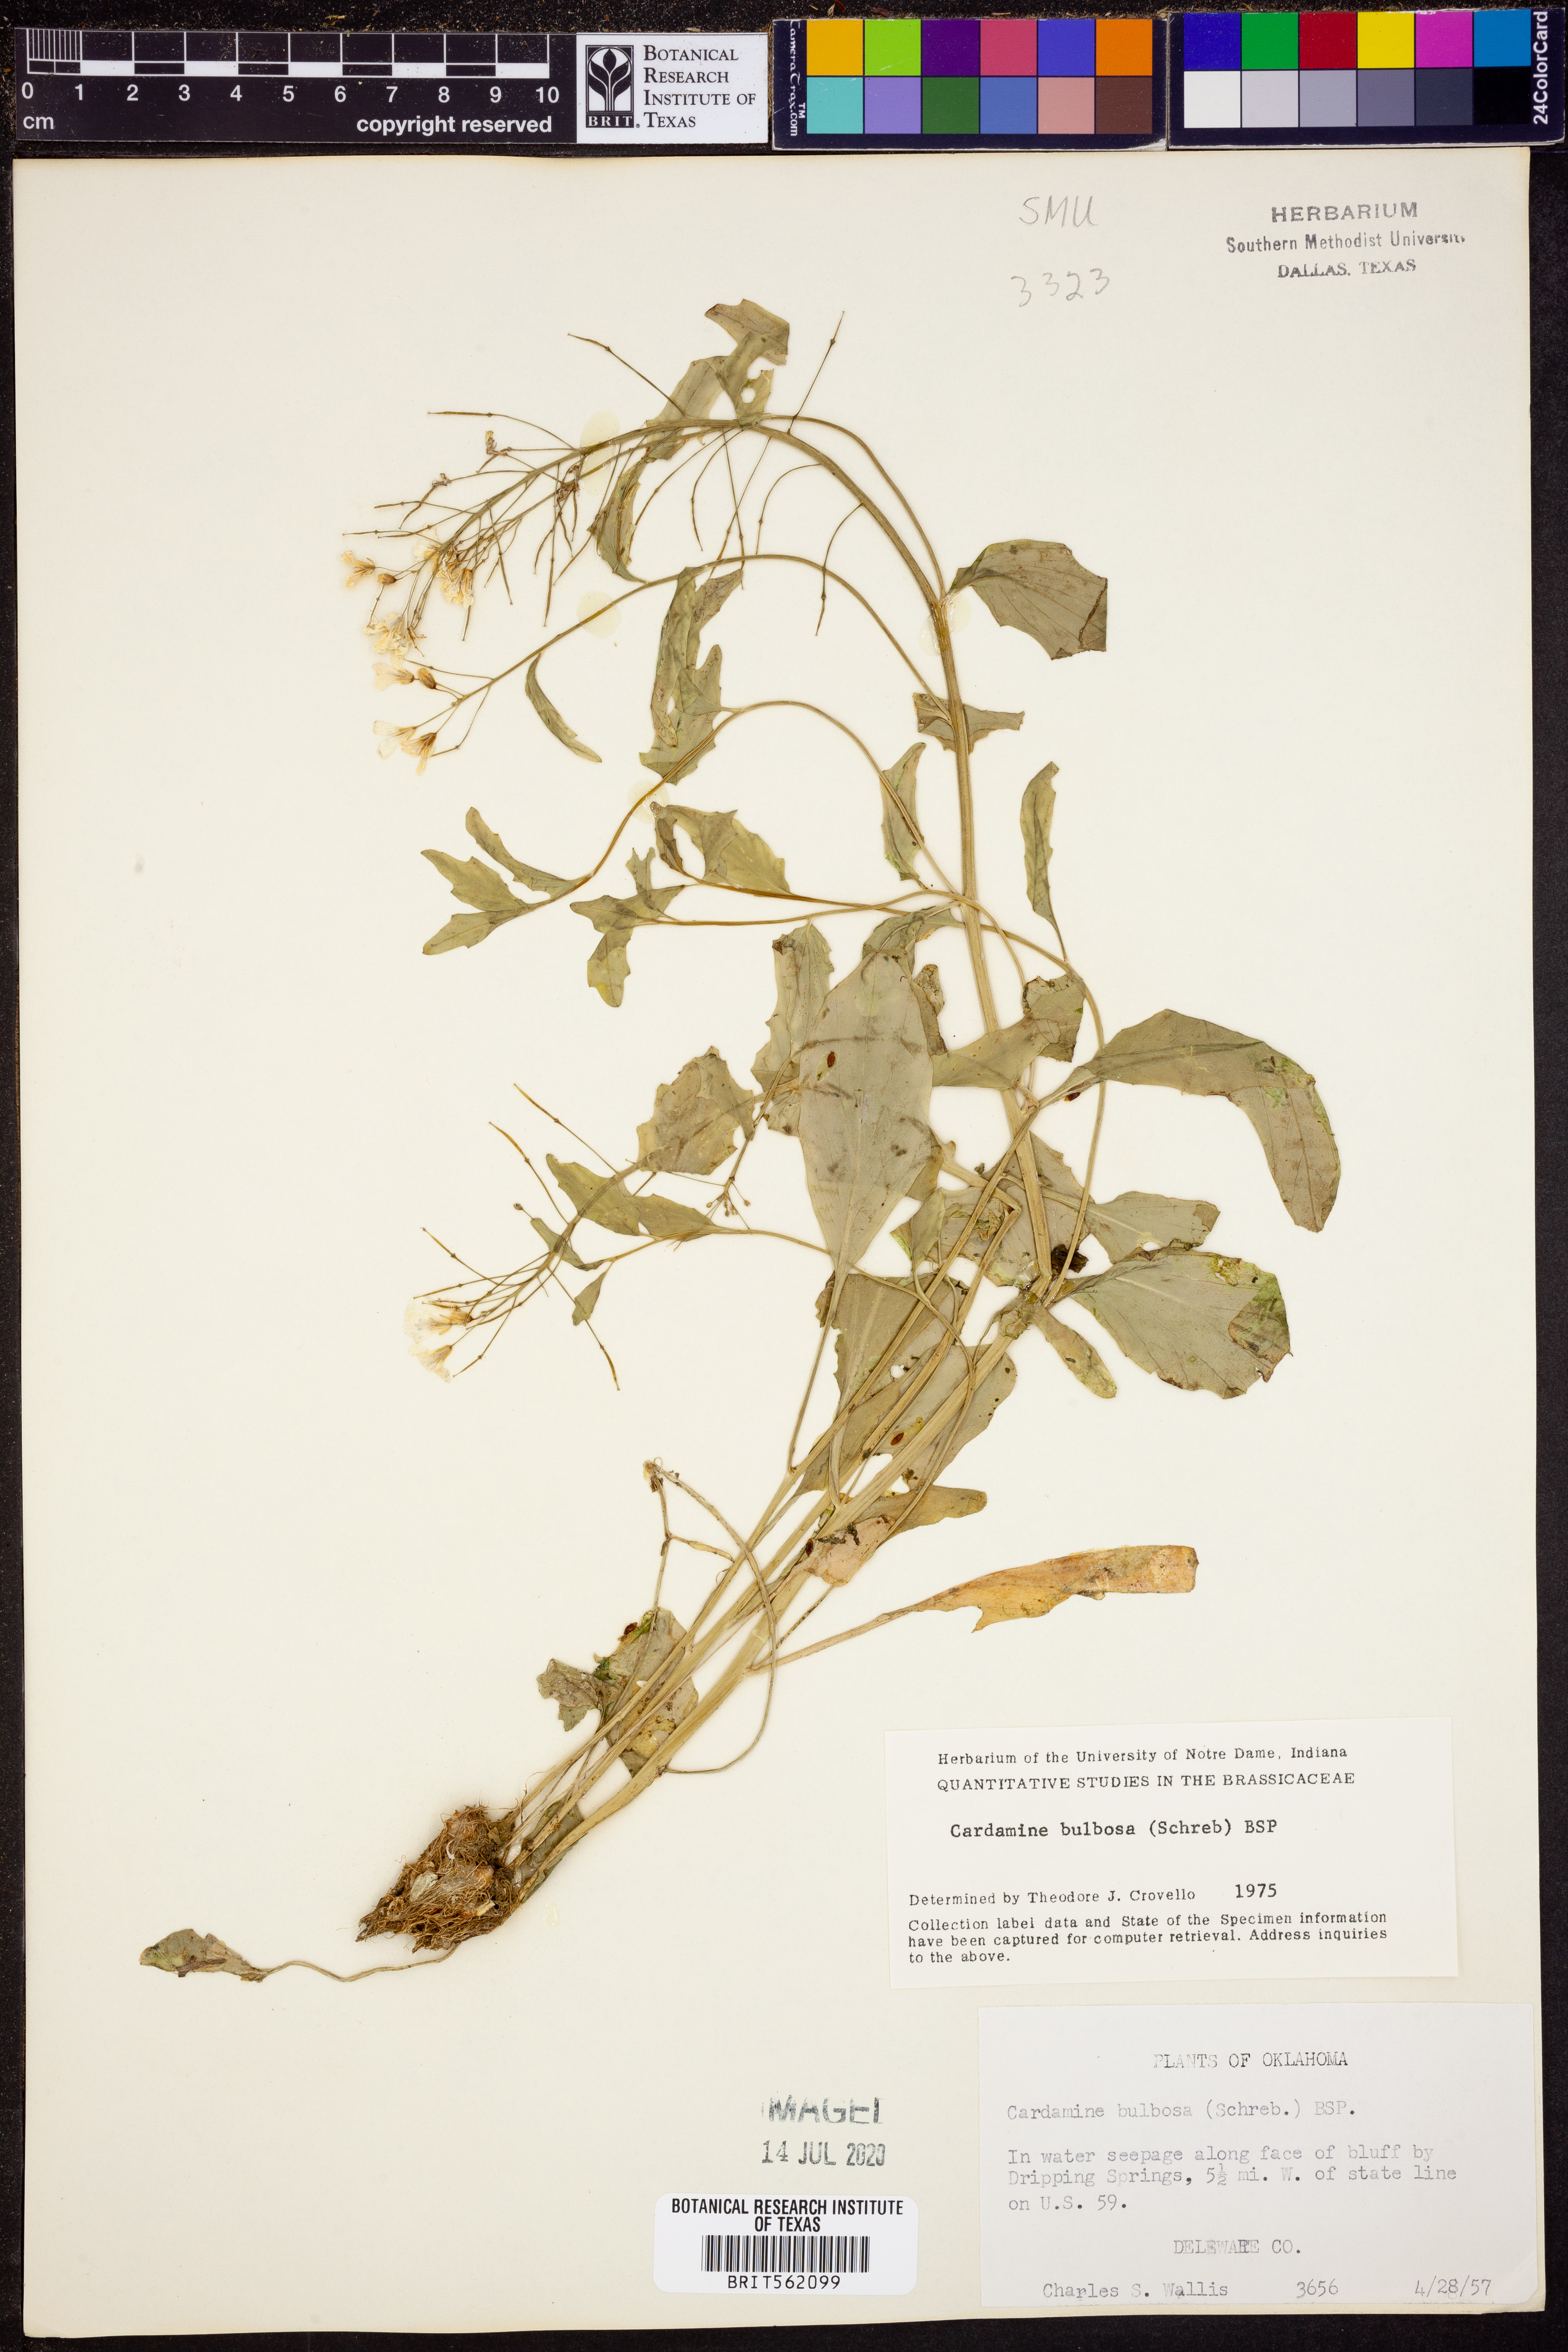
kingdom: Plantae
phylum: Tracheophyta
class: Magnoliopsida
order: Brassicales
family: Brassicaceae
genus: Cardamine
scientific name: Cardamine bulbosa
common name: Spring cress
